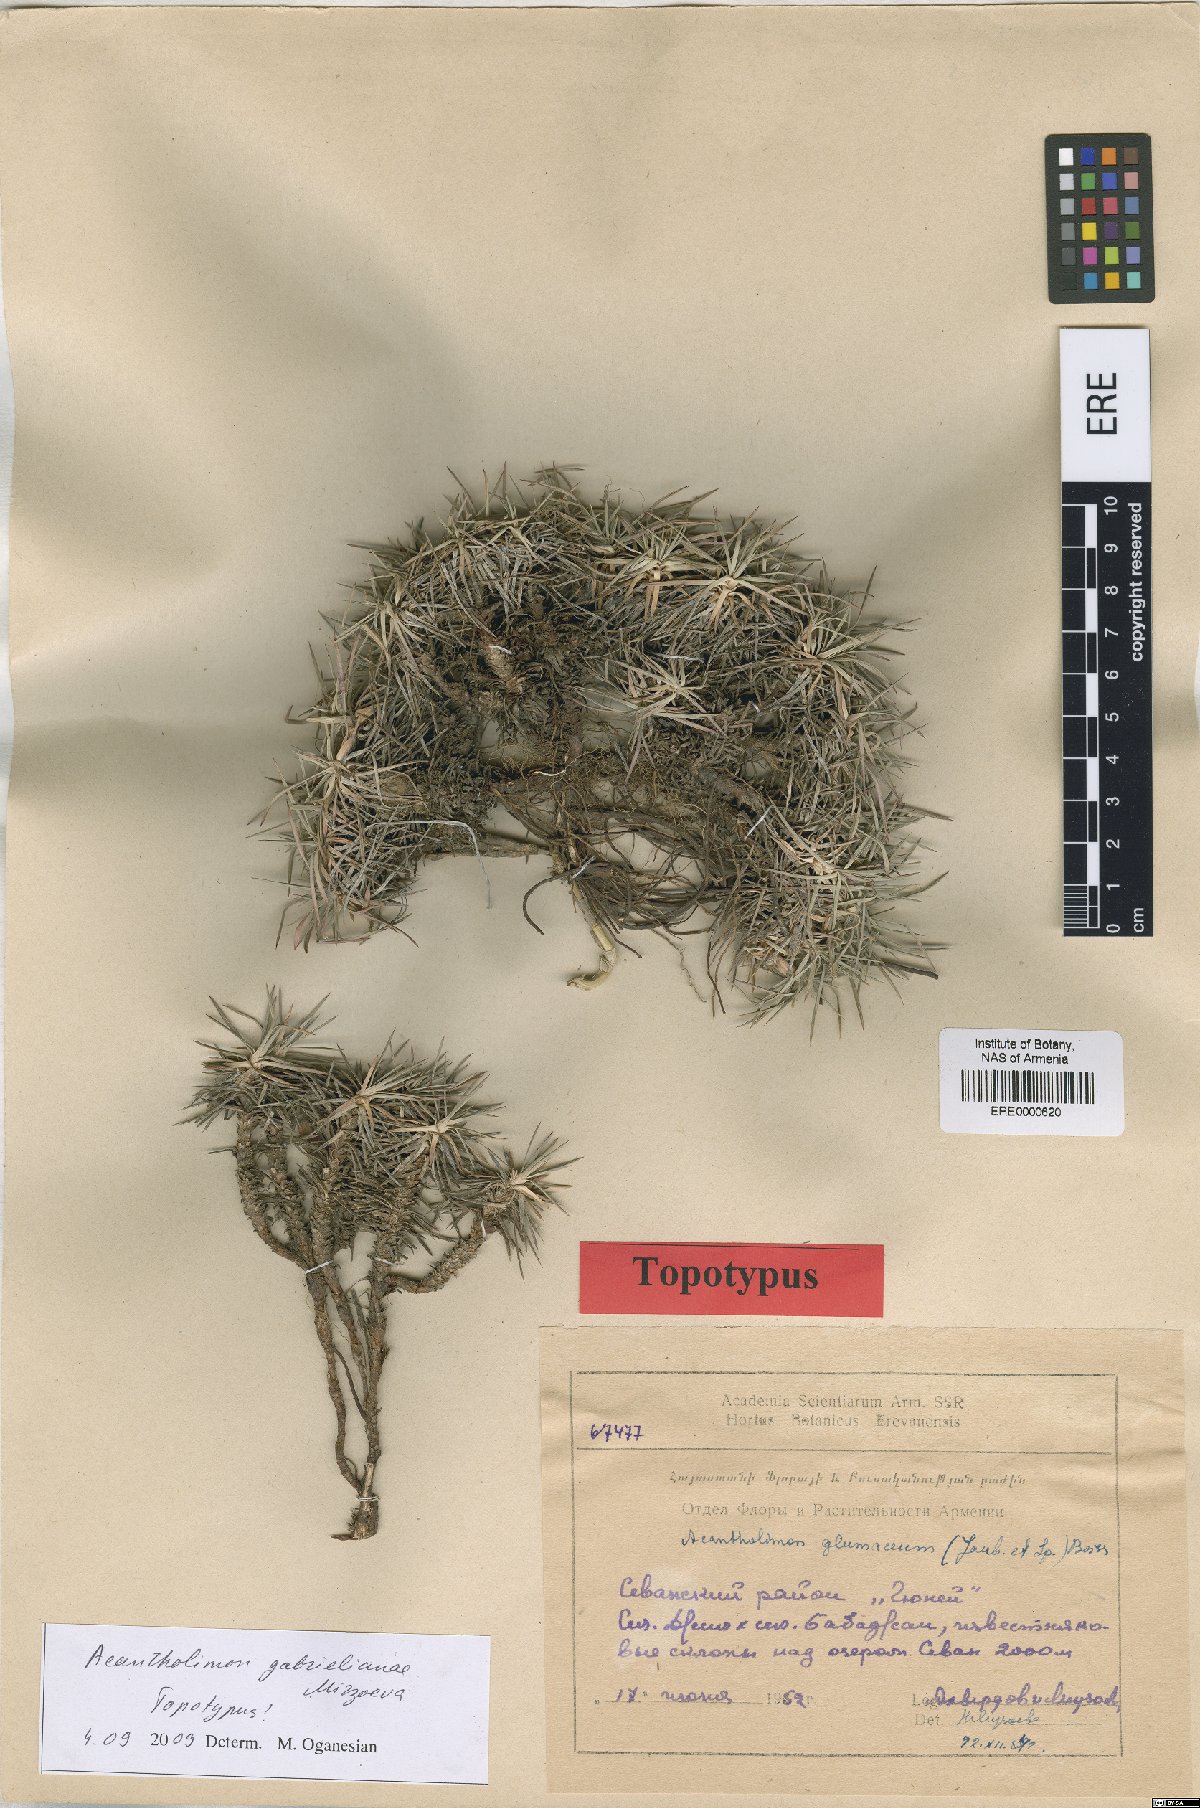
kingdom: Plantae
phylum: Tracheophyta
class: Magnoliopsida
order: Caryophyllales
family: Plumbaginaceae
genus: Acantholimon
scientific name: Acantholimon gabrieljaniae
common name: Gabrielyan's prickly-thrift
